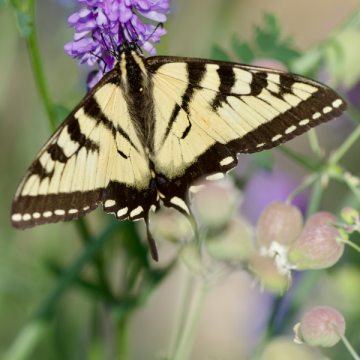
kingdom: Animalia
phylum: Arthropoda
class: Insecta
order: Lepidoptera
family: Papilionidae
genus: Pterourus
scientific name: Pterourus canadensis
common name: Canadian Tiger Swallowtail
